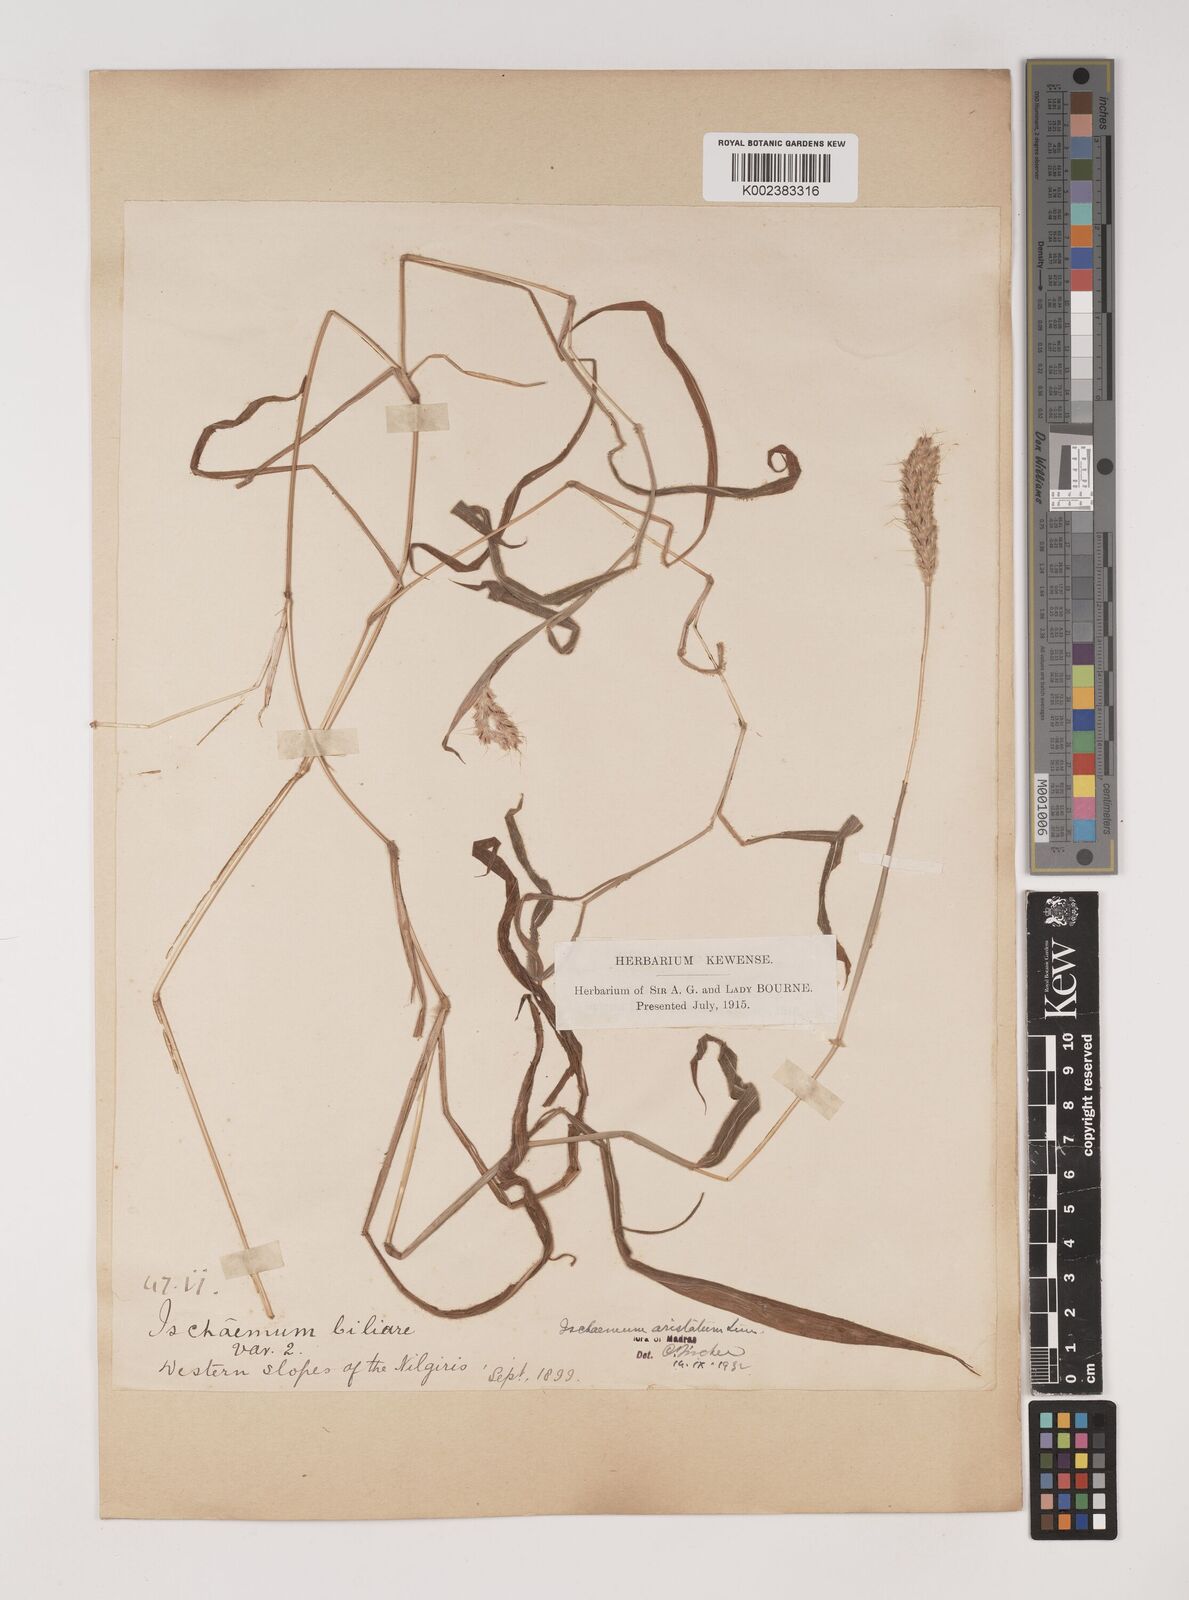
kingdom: Plantae
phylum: Tracheophyta
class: Liliopsida
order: Poales
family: Poaceae
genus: Polytrias
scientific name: Polytrias indica
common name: Indian murainagrass
